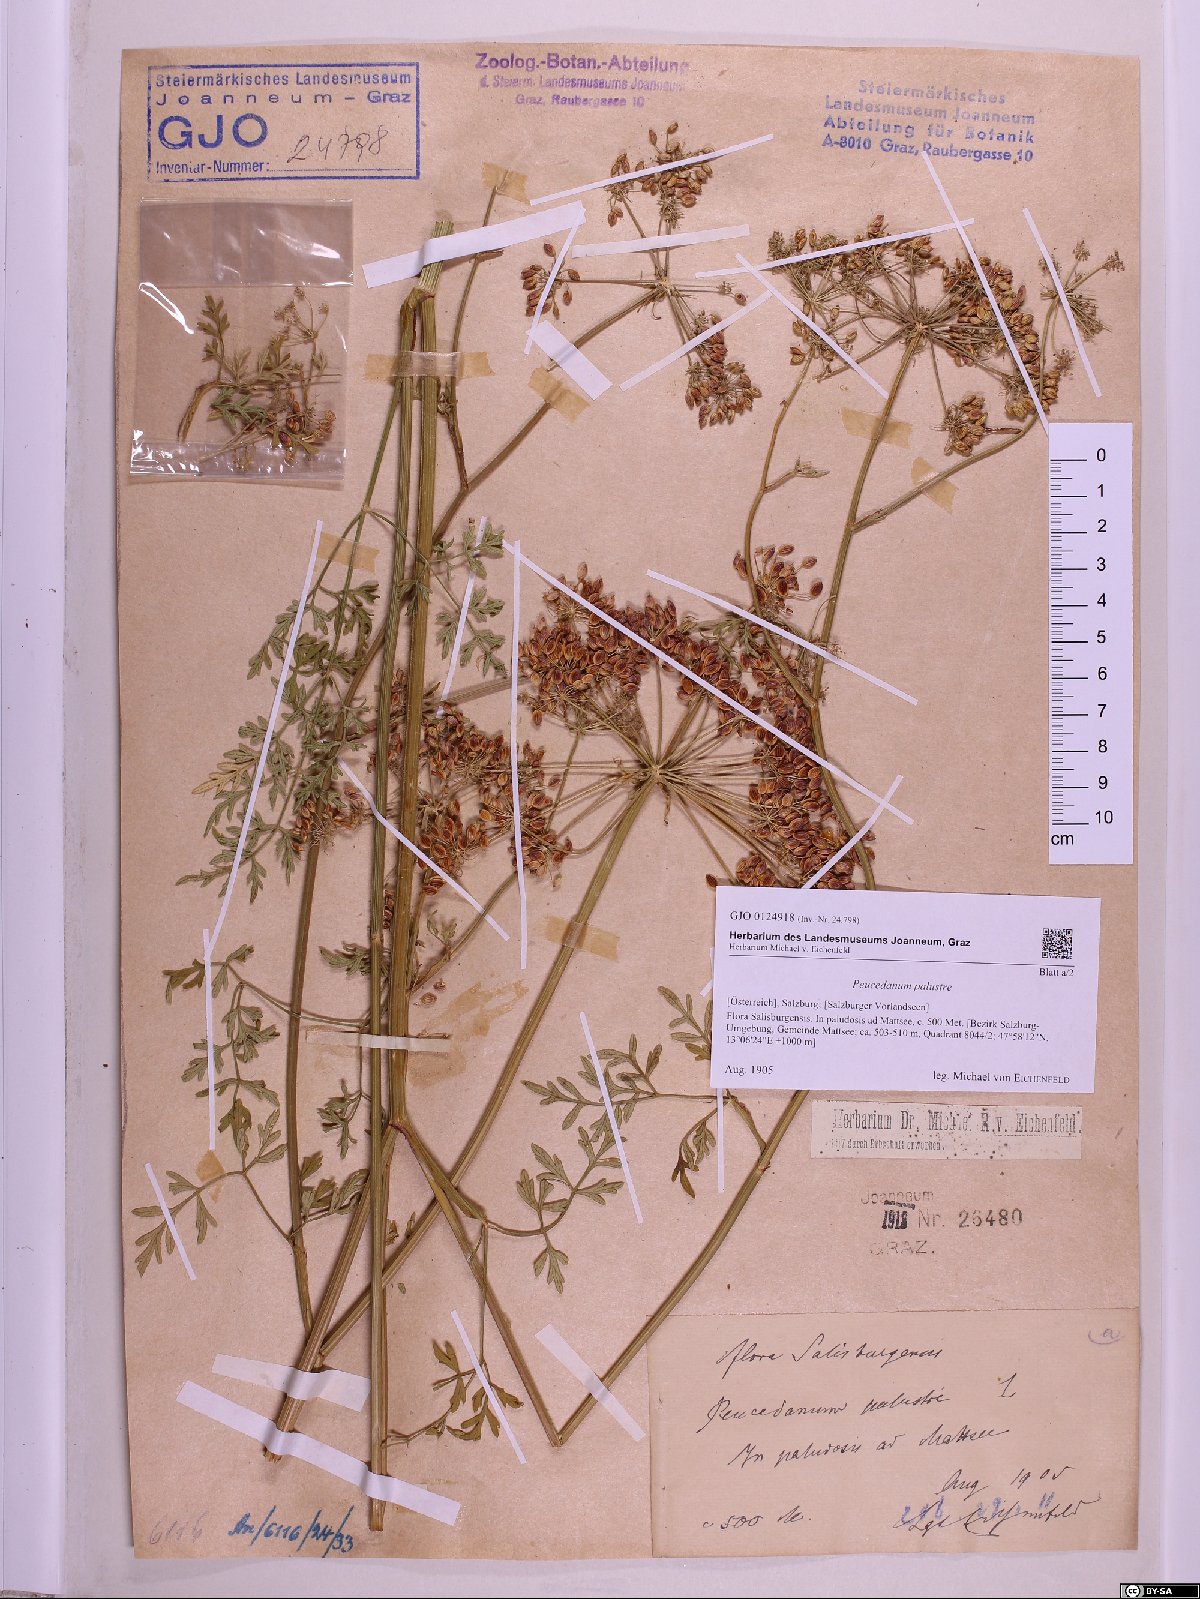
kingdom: Plantae
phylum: Tracheophyta
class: Magnoliopsida
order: Apiales
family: Apiaceae
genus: Thysselinum
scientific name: Thysselinum palustre
